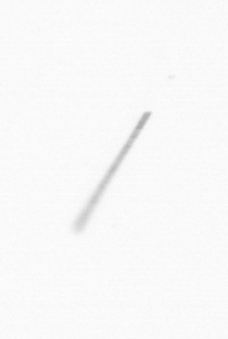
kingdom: Chromista
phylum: Ochrophyta
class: Bacillariophyceae
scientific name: Bacillariophyceae
